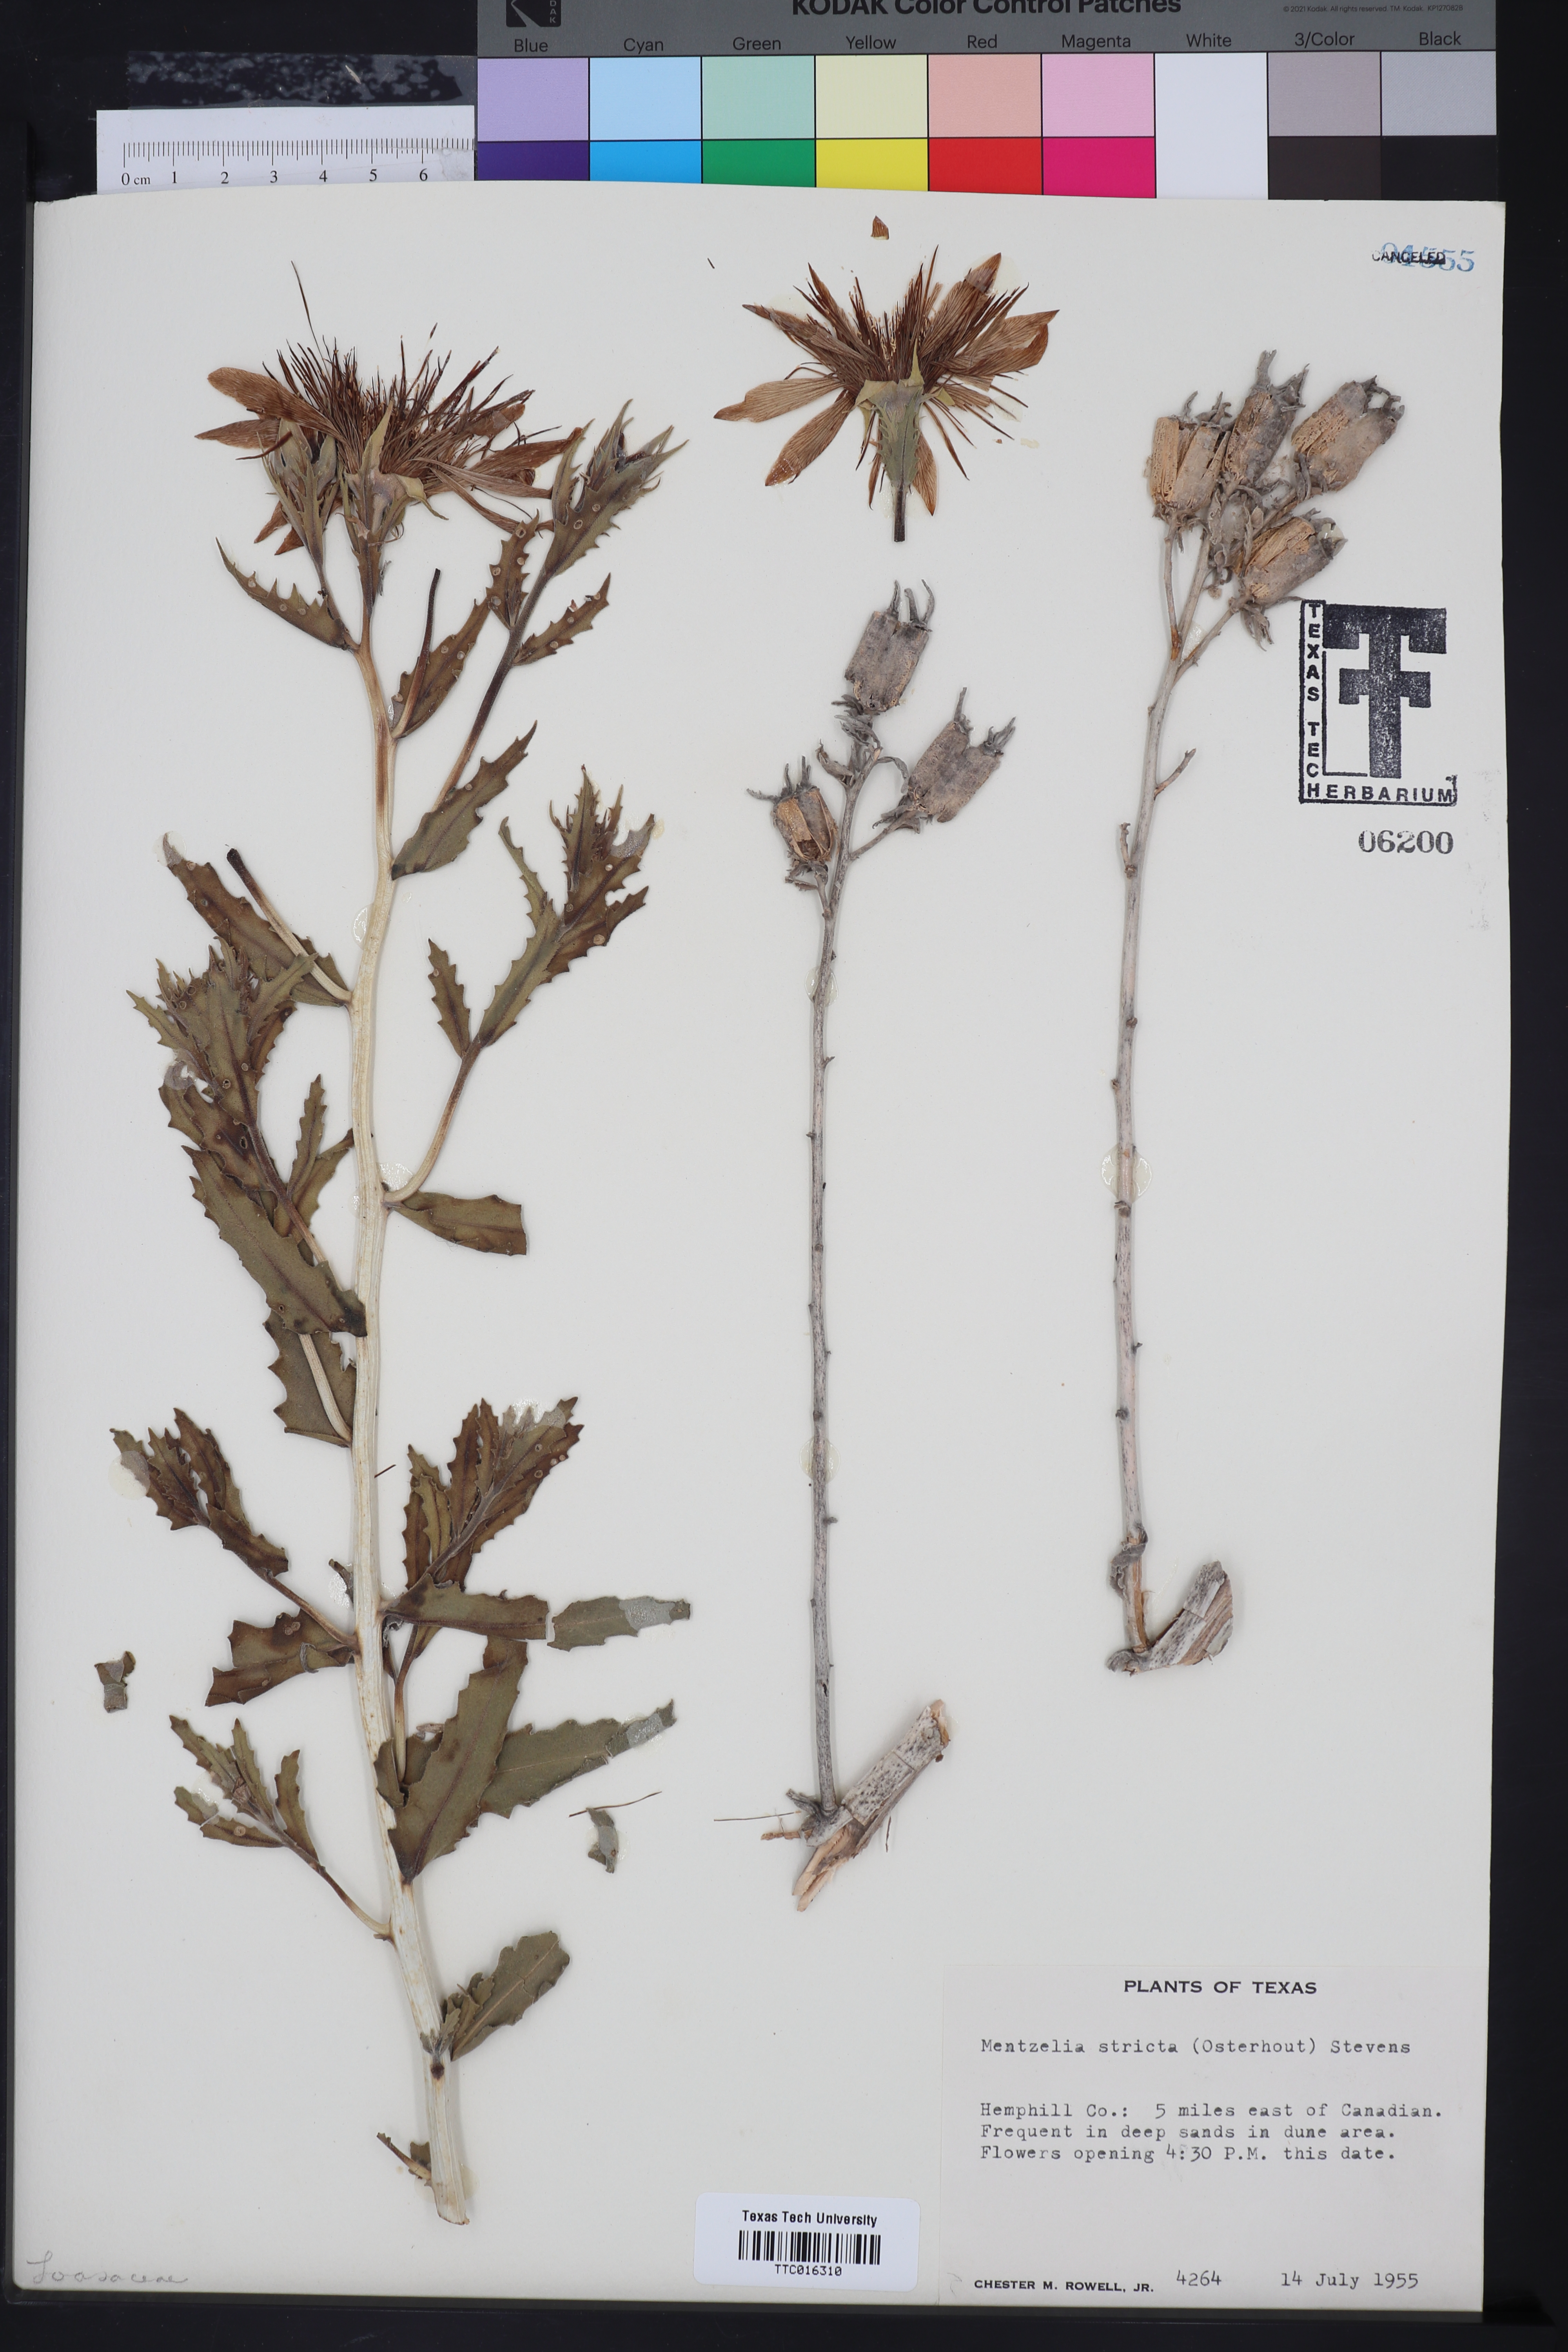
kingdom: Plantae
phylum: Tracheophyta
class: Magnoliopsida
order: Cornales
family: Loasaceae
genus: Mentzelia
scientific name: Mentzelia nuda
